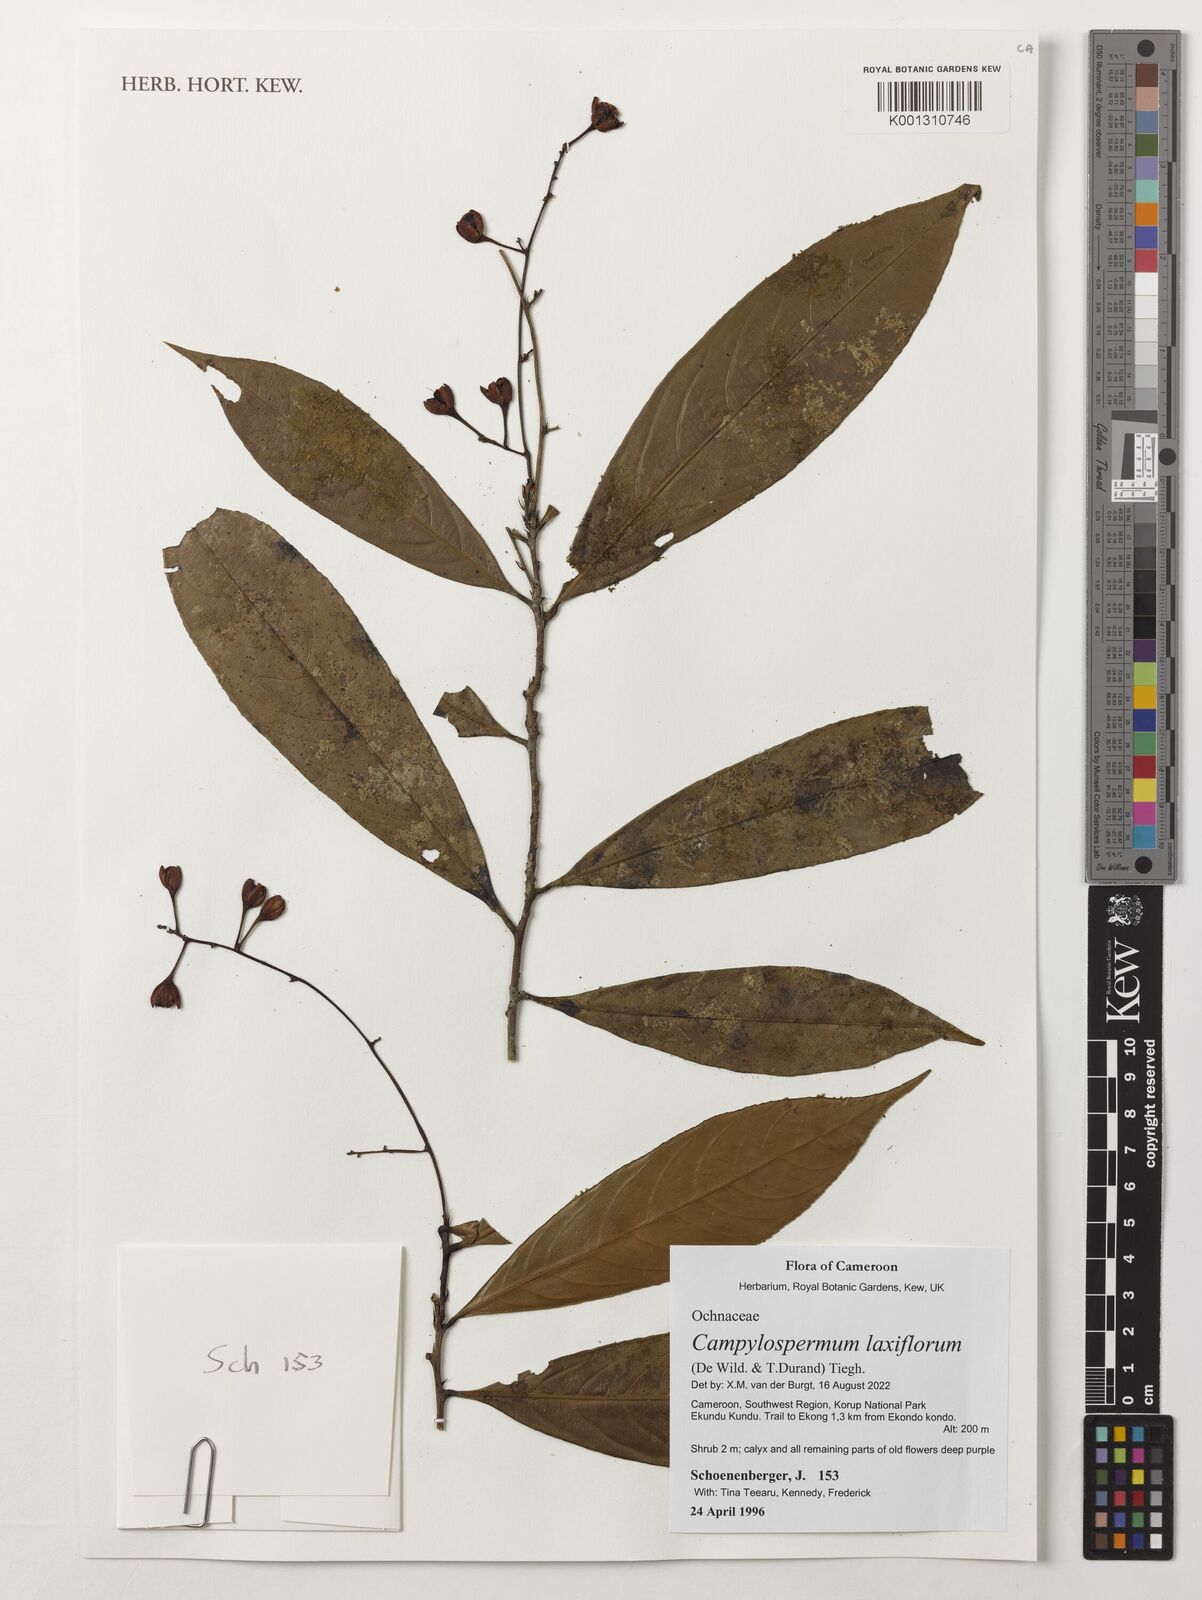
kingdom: Plantae
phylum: Tracheophyta
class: Magnoliopsida
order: Malpighiales
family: Ochnaceae
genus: Campylospermum
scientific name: Campylospermum laxiflorum
